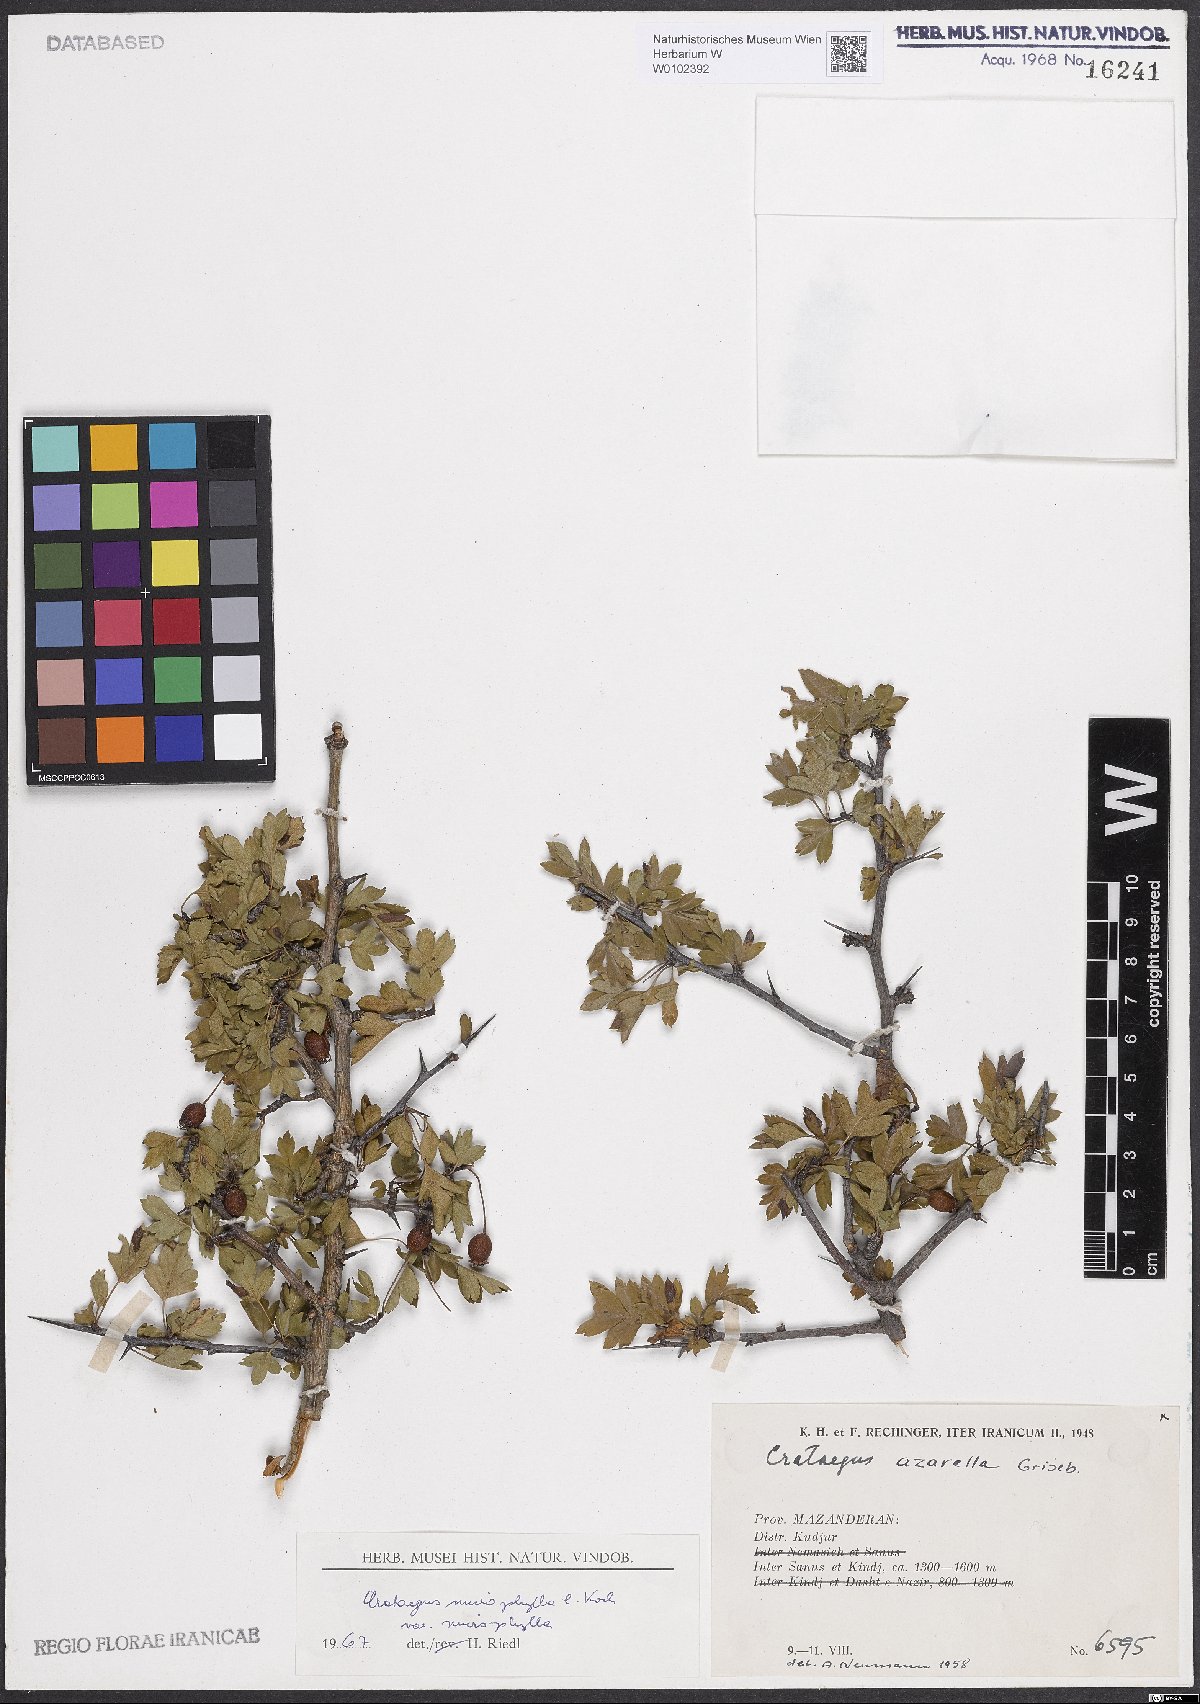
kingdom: Plantae
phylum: Tracheophyta
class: Magnoliopsida
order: Rosales
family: Rosaceae
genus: Crataegus
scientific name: Crataegus microphylla
